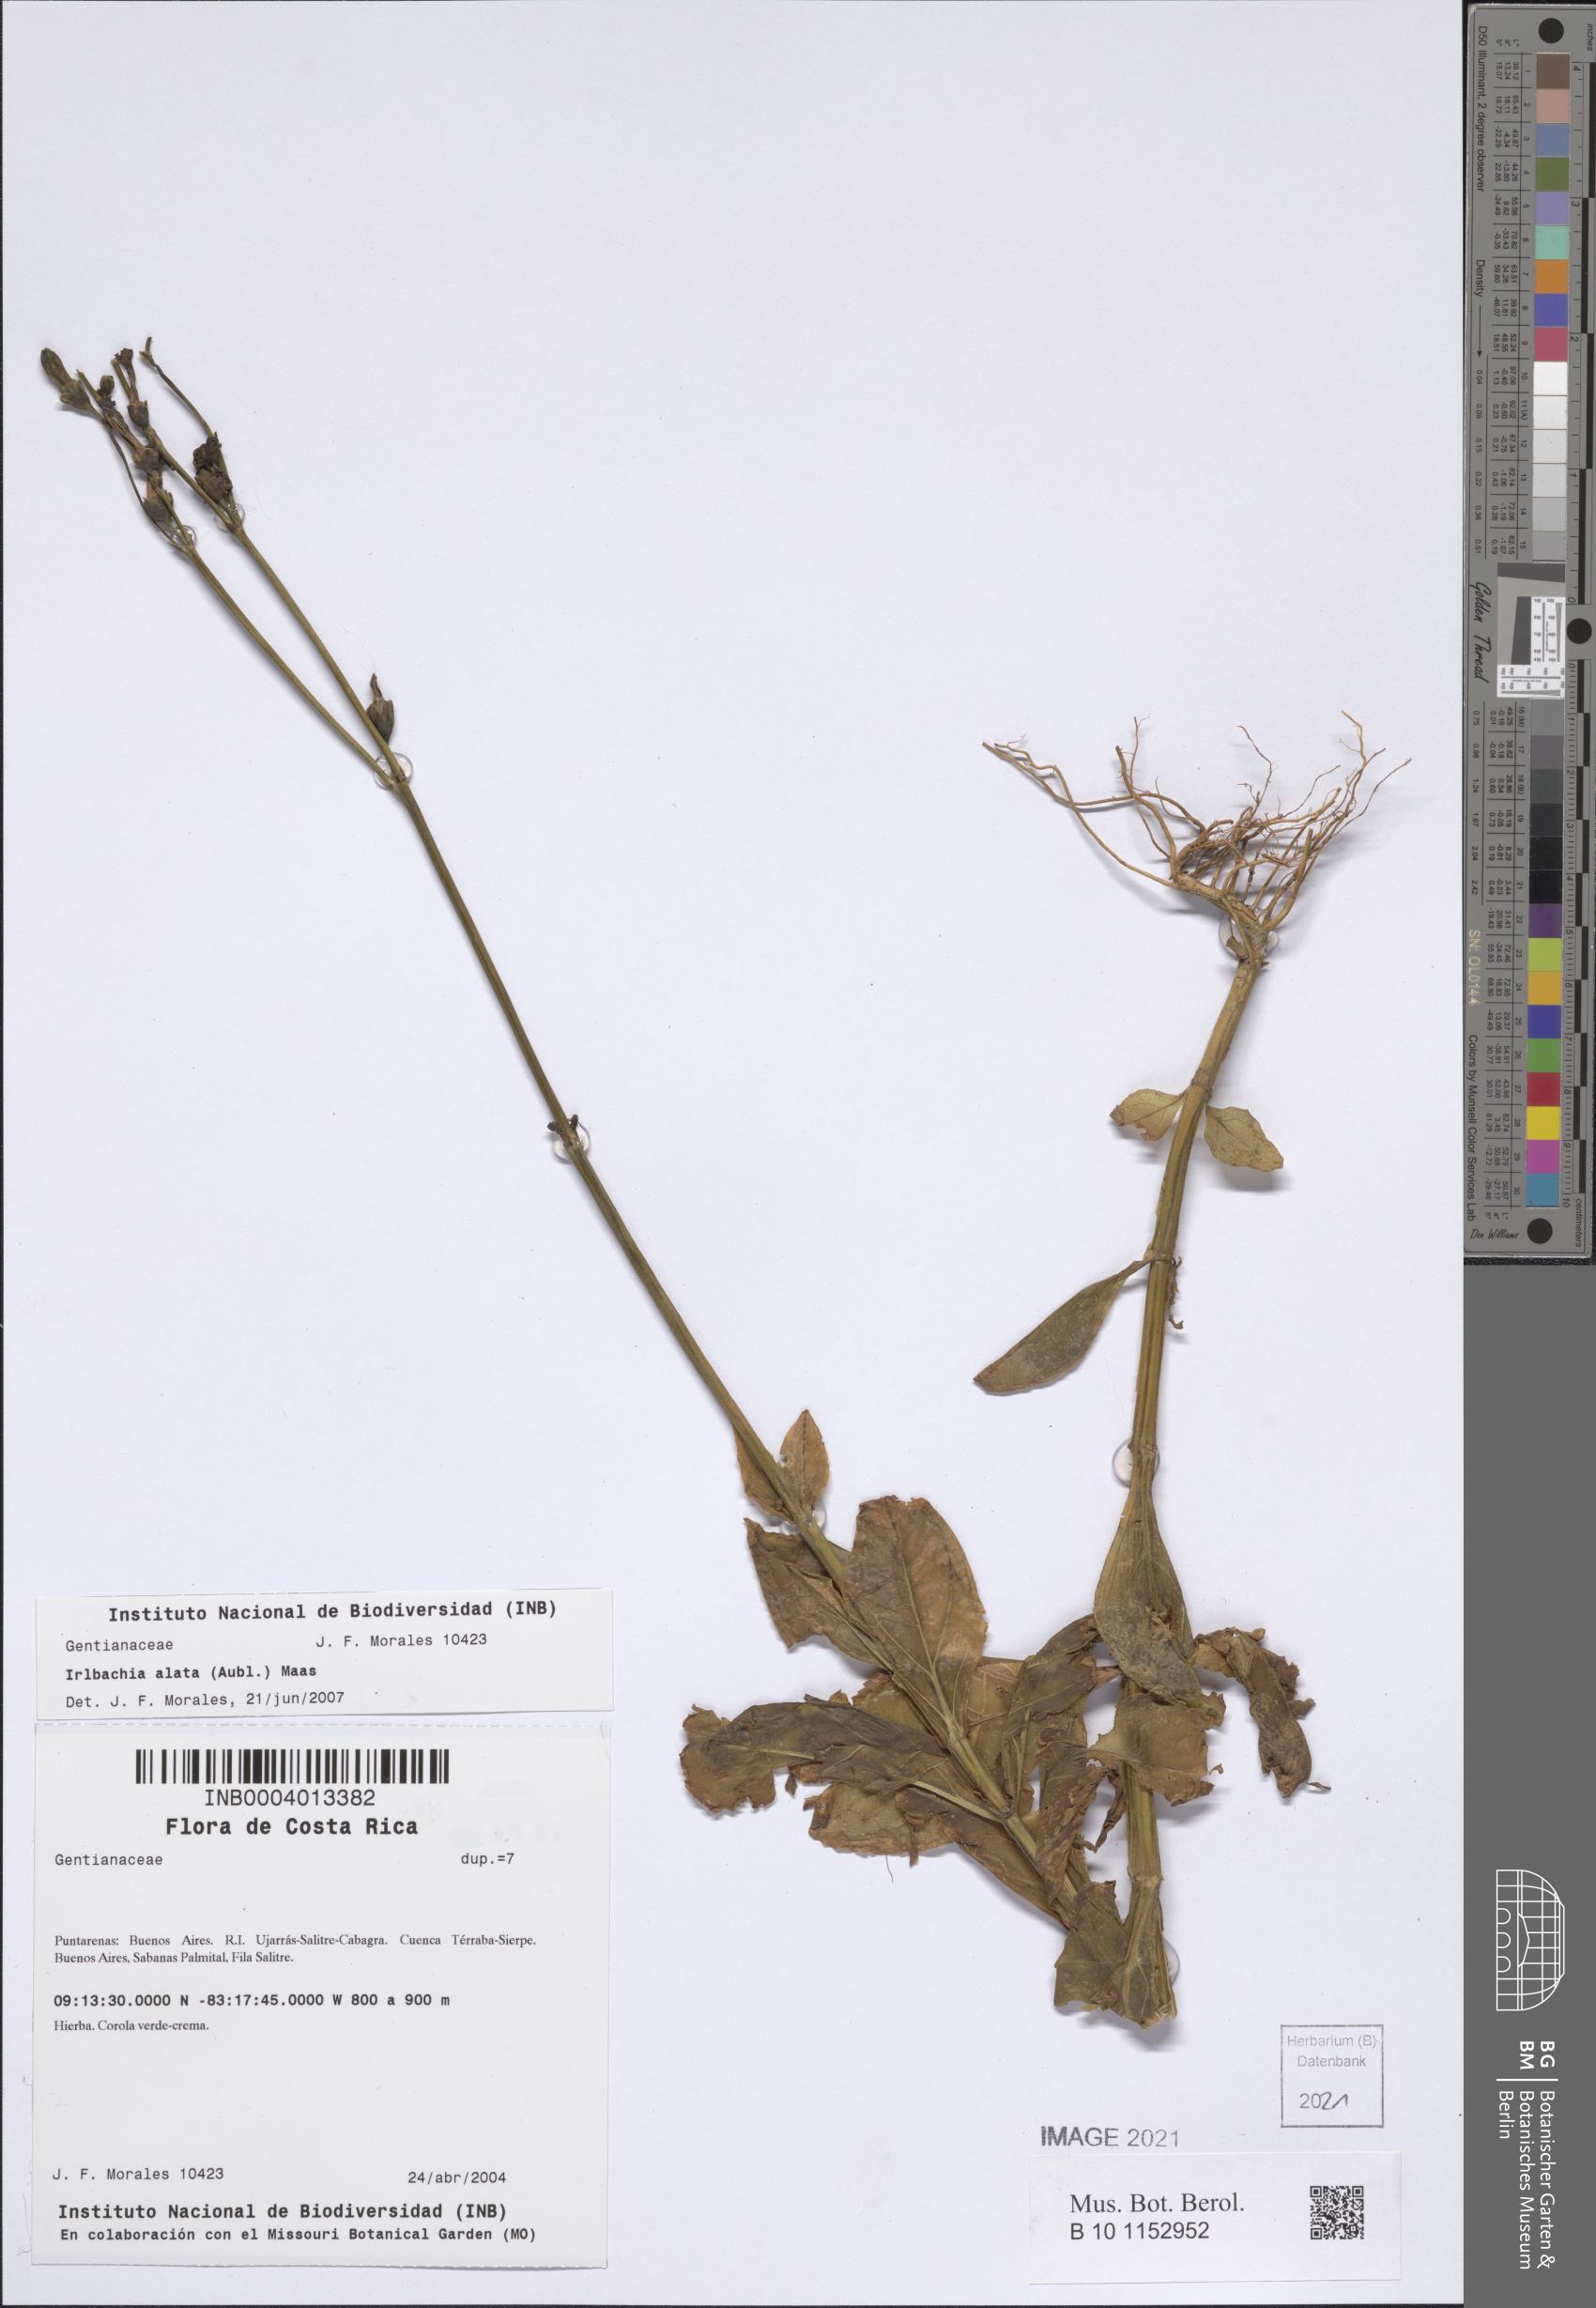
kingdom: Plantae
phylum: Tracheophyta
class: Magnoliopsida
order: Gentianales
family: Gentianaceae
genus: Chelonanthus
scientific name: Chelonanthus alatus
